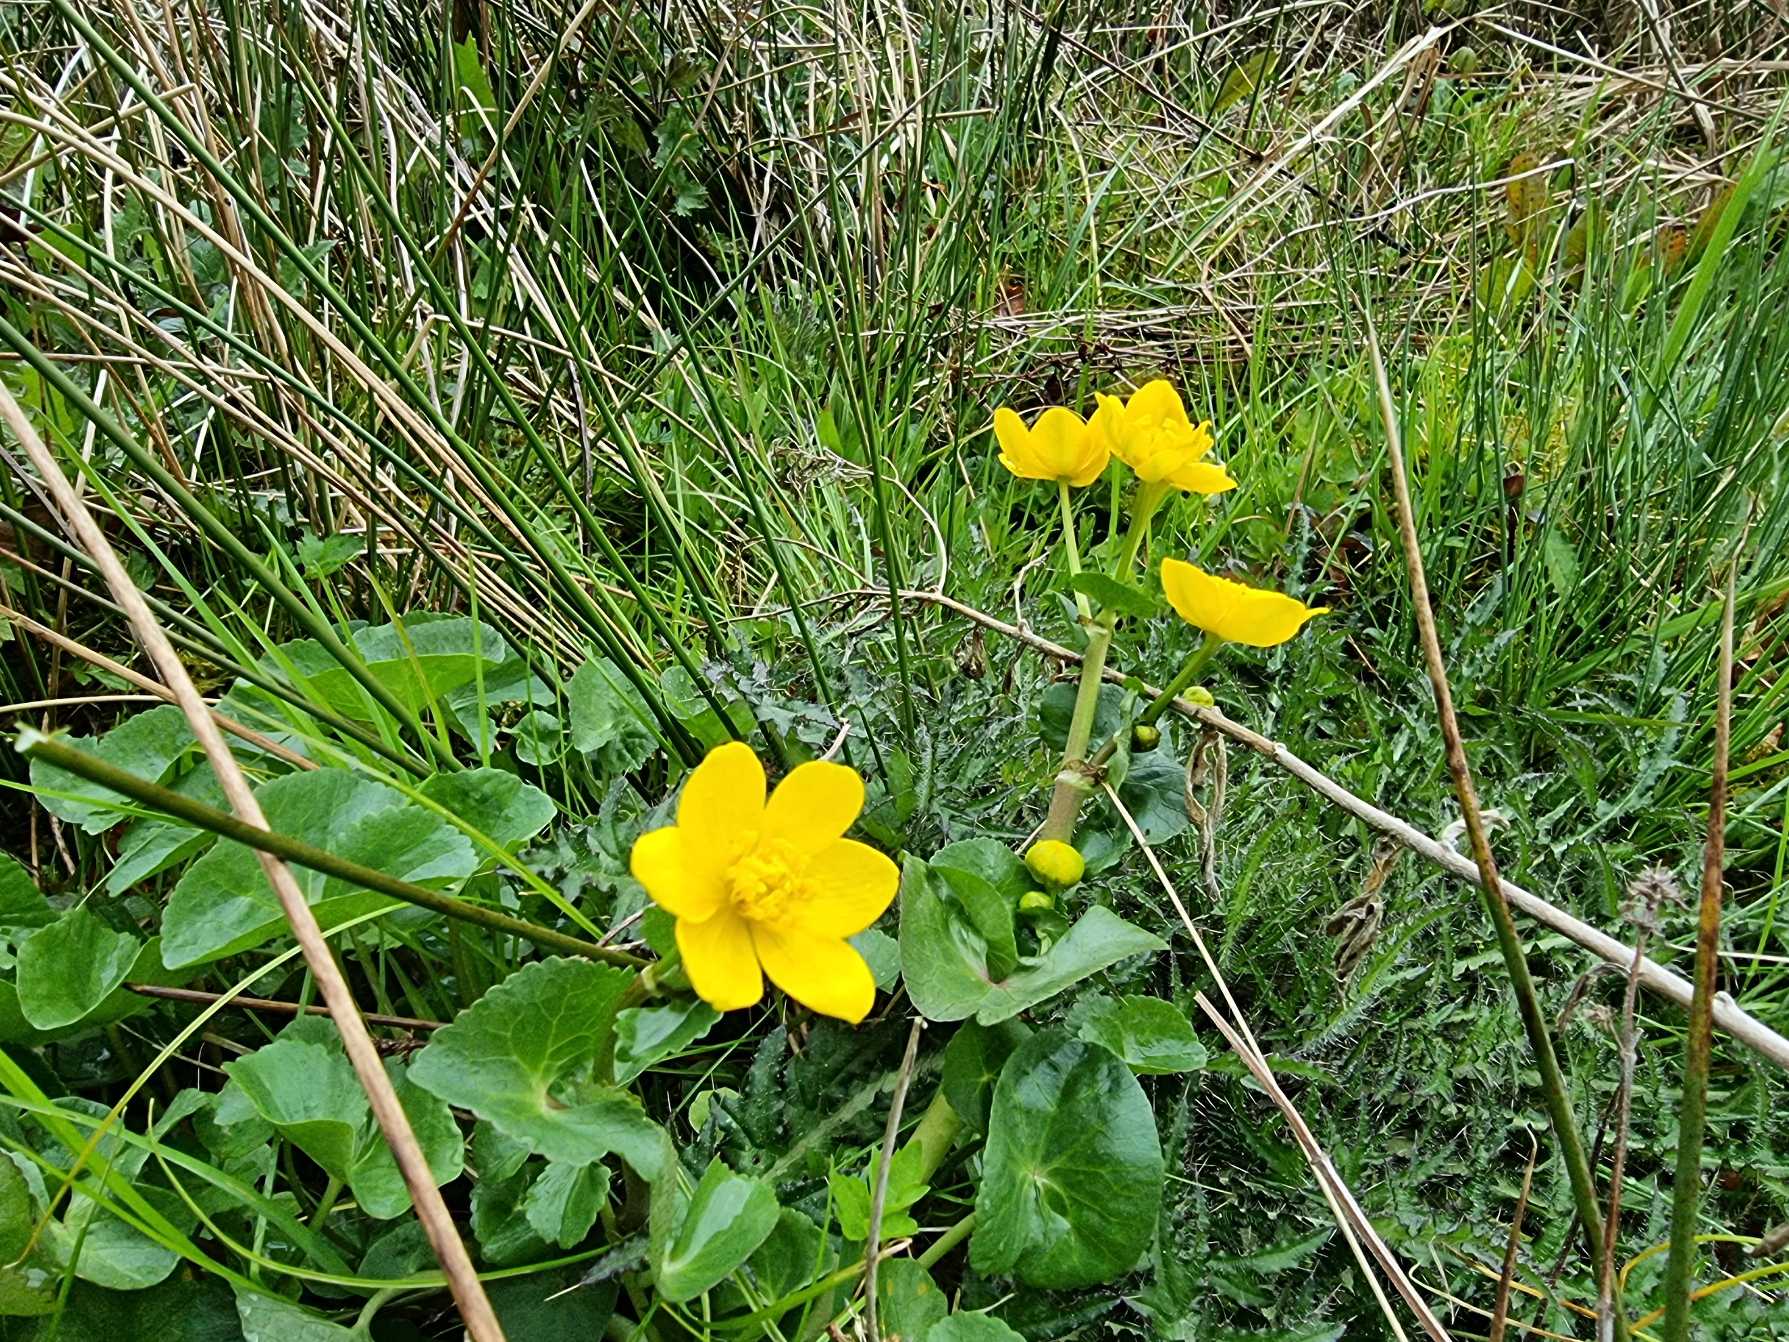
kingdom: Plantae
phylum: Tracheophyta
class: Magnoliopsida
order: Ranunculales
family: Ranunculaceae
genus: Caltha
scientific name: Caltha palustris
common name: Eng-kabbeleje
